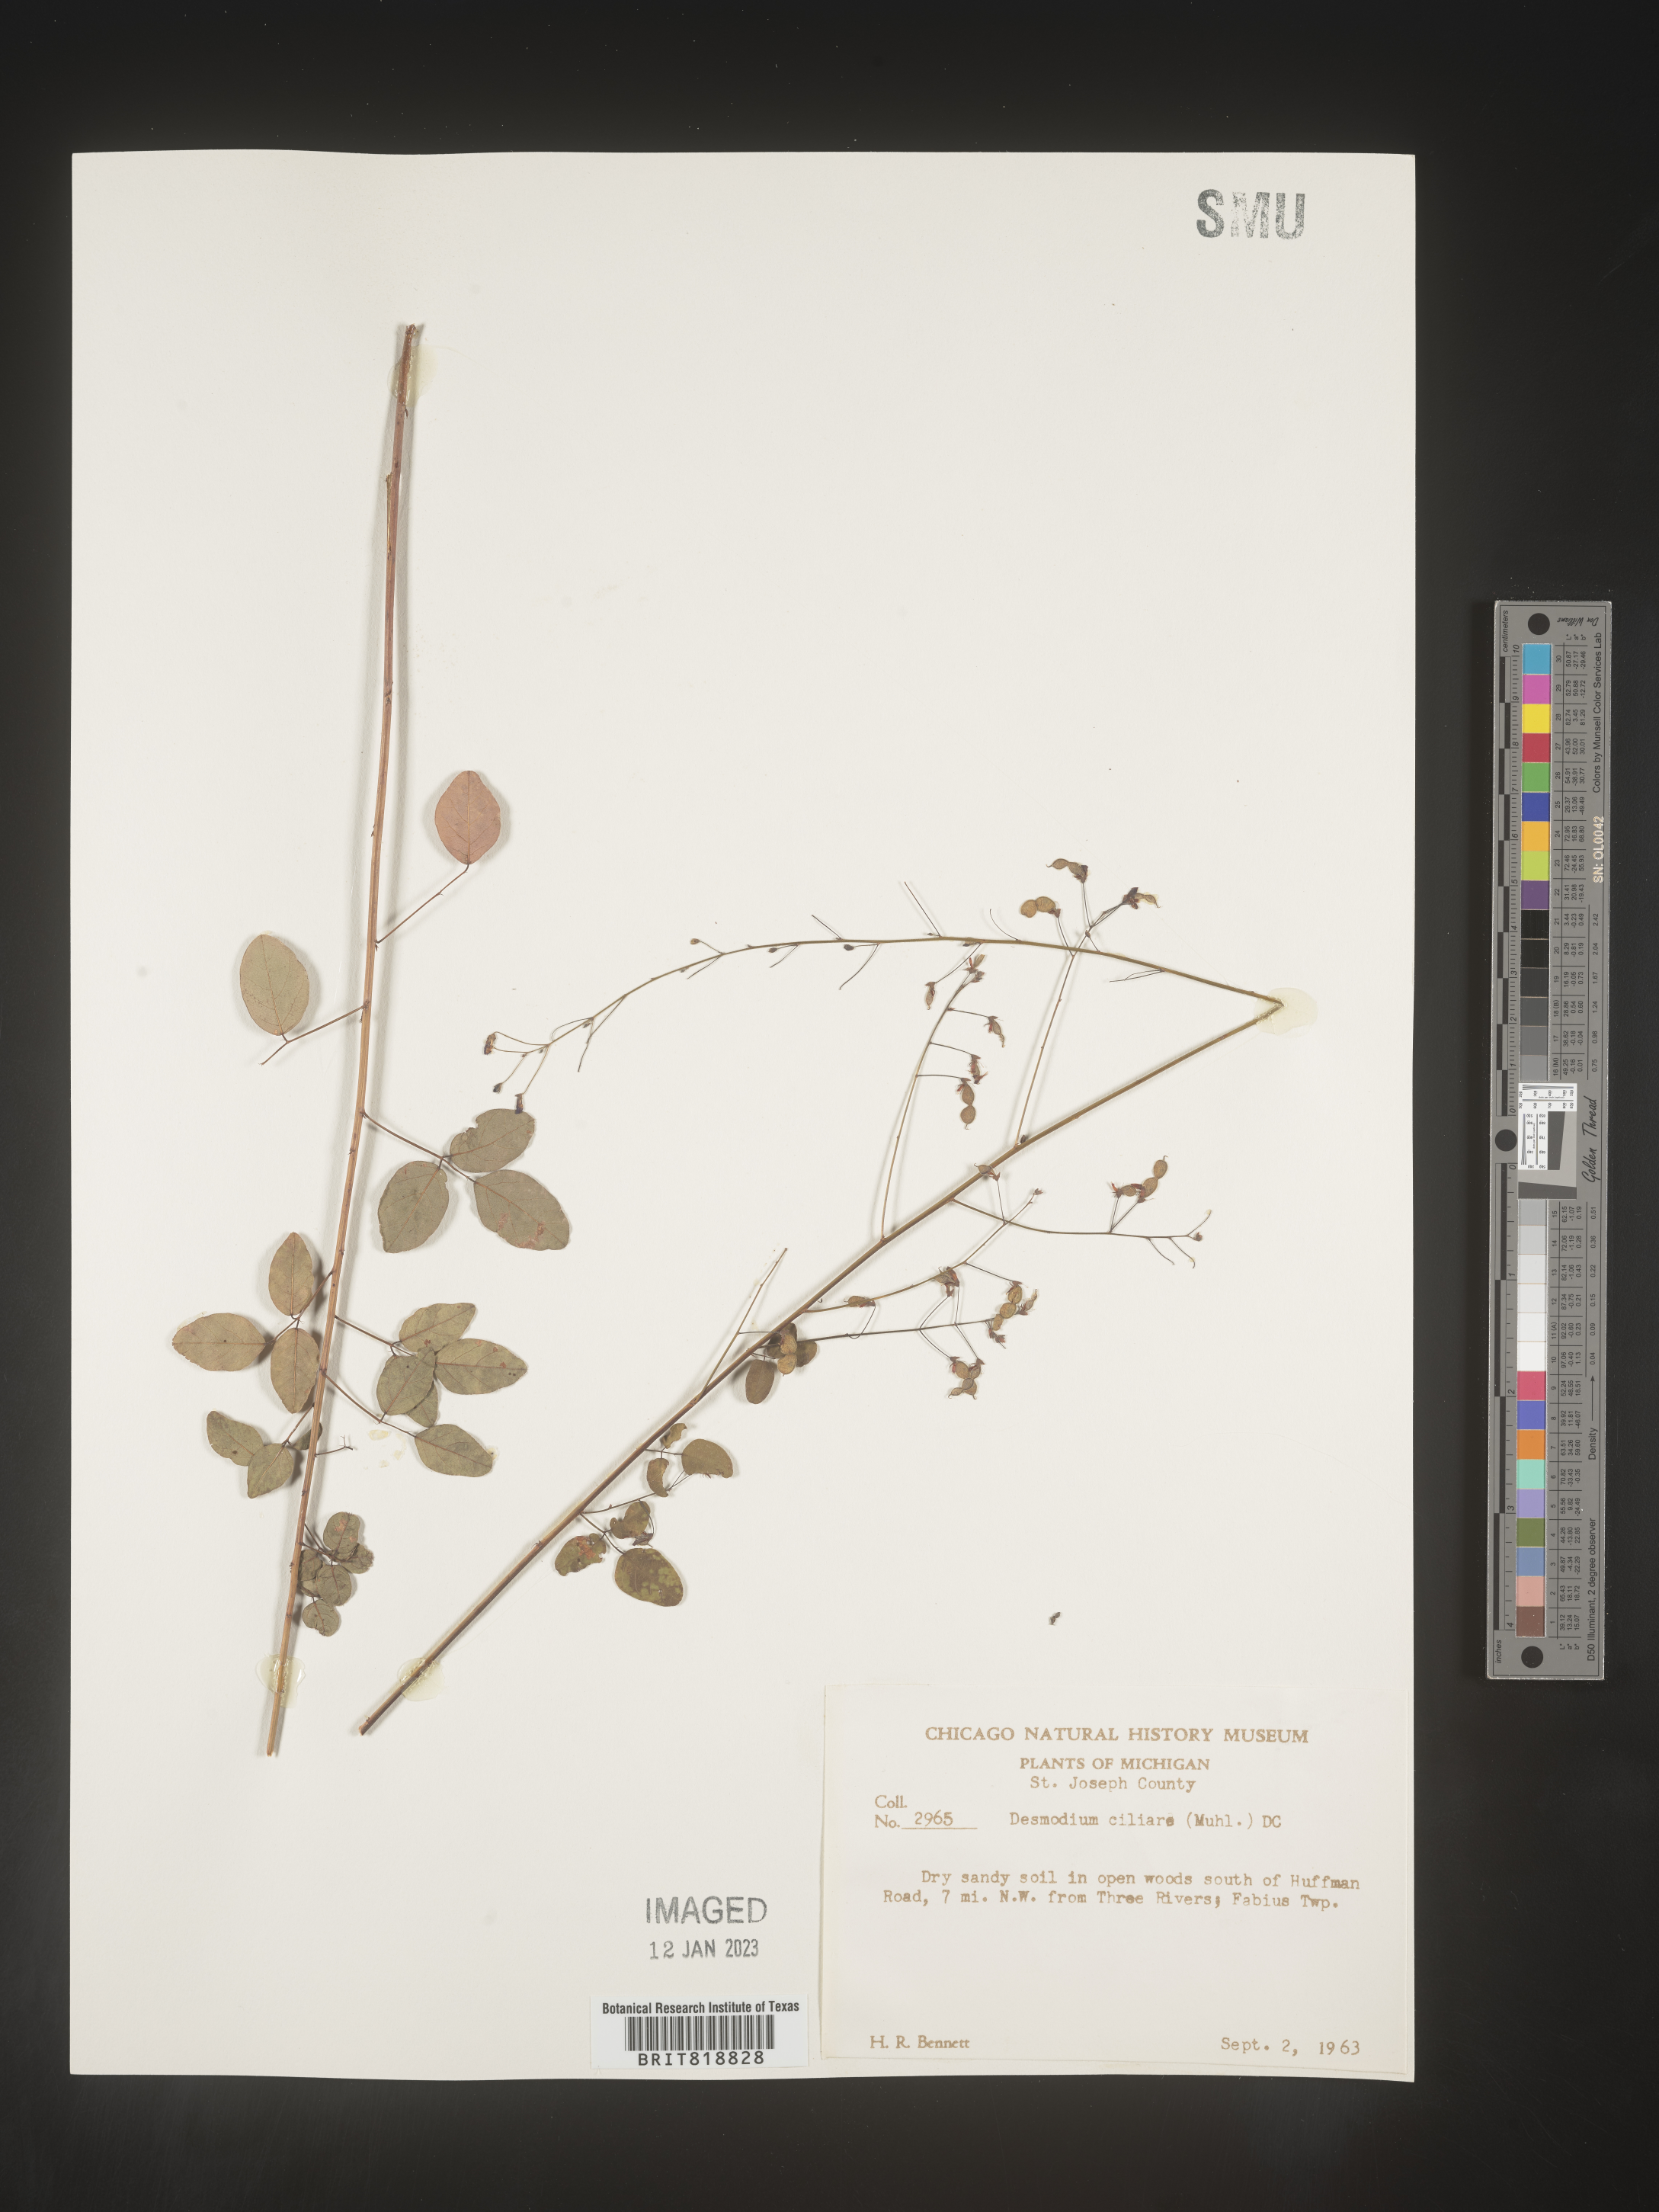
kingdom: Plantae
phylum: Tracheophyta
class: Magnoliopsida
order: Fabales
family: Fabaceae
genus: Desmodium
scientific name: Desmodium ciliare
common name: Hairy small-leaf ticktrefoil
